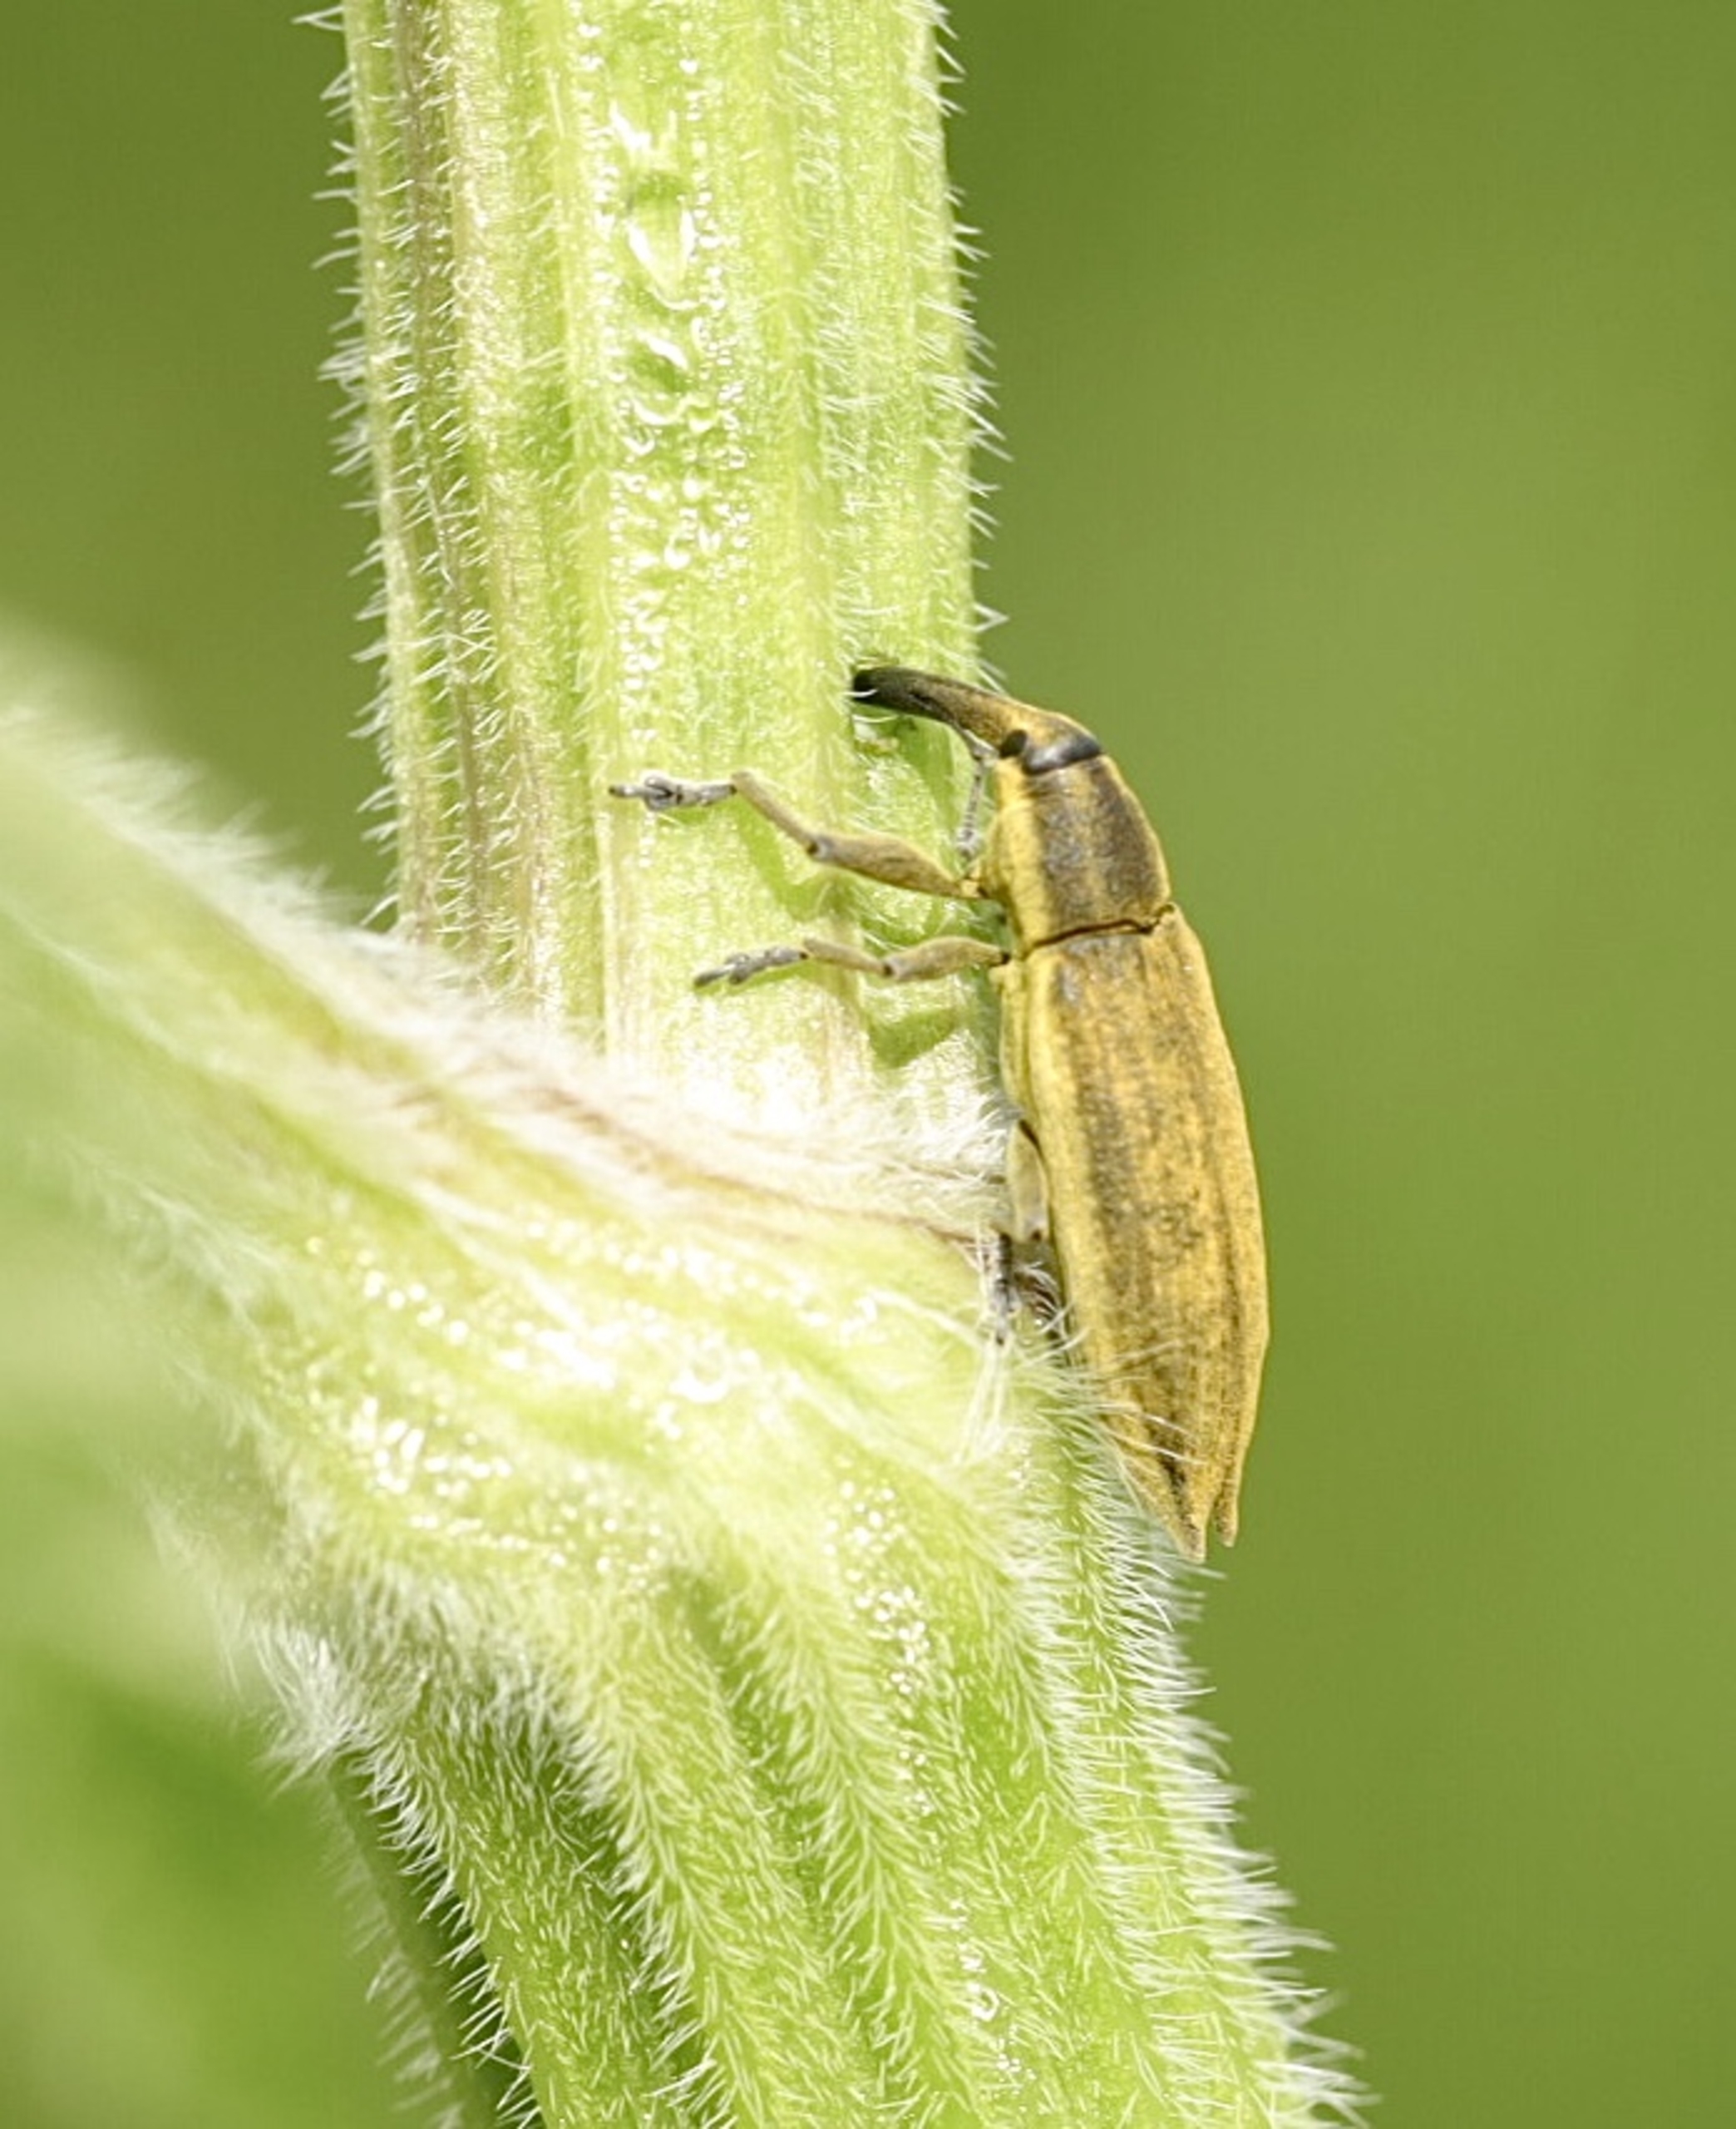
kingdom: Animalia
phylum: Arthropoda
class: Insecta
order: Coleoptera
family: Curculionidae
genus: Lixus
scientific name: Lixus iridis
